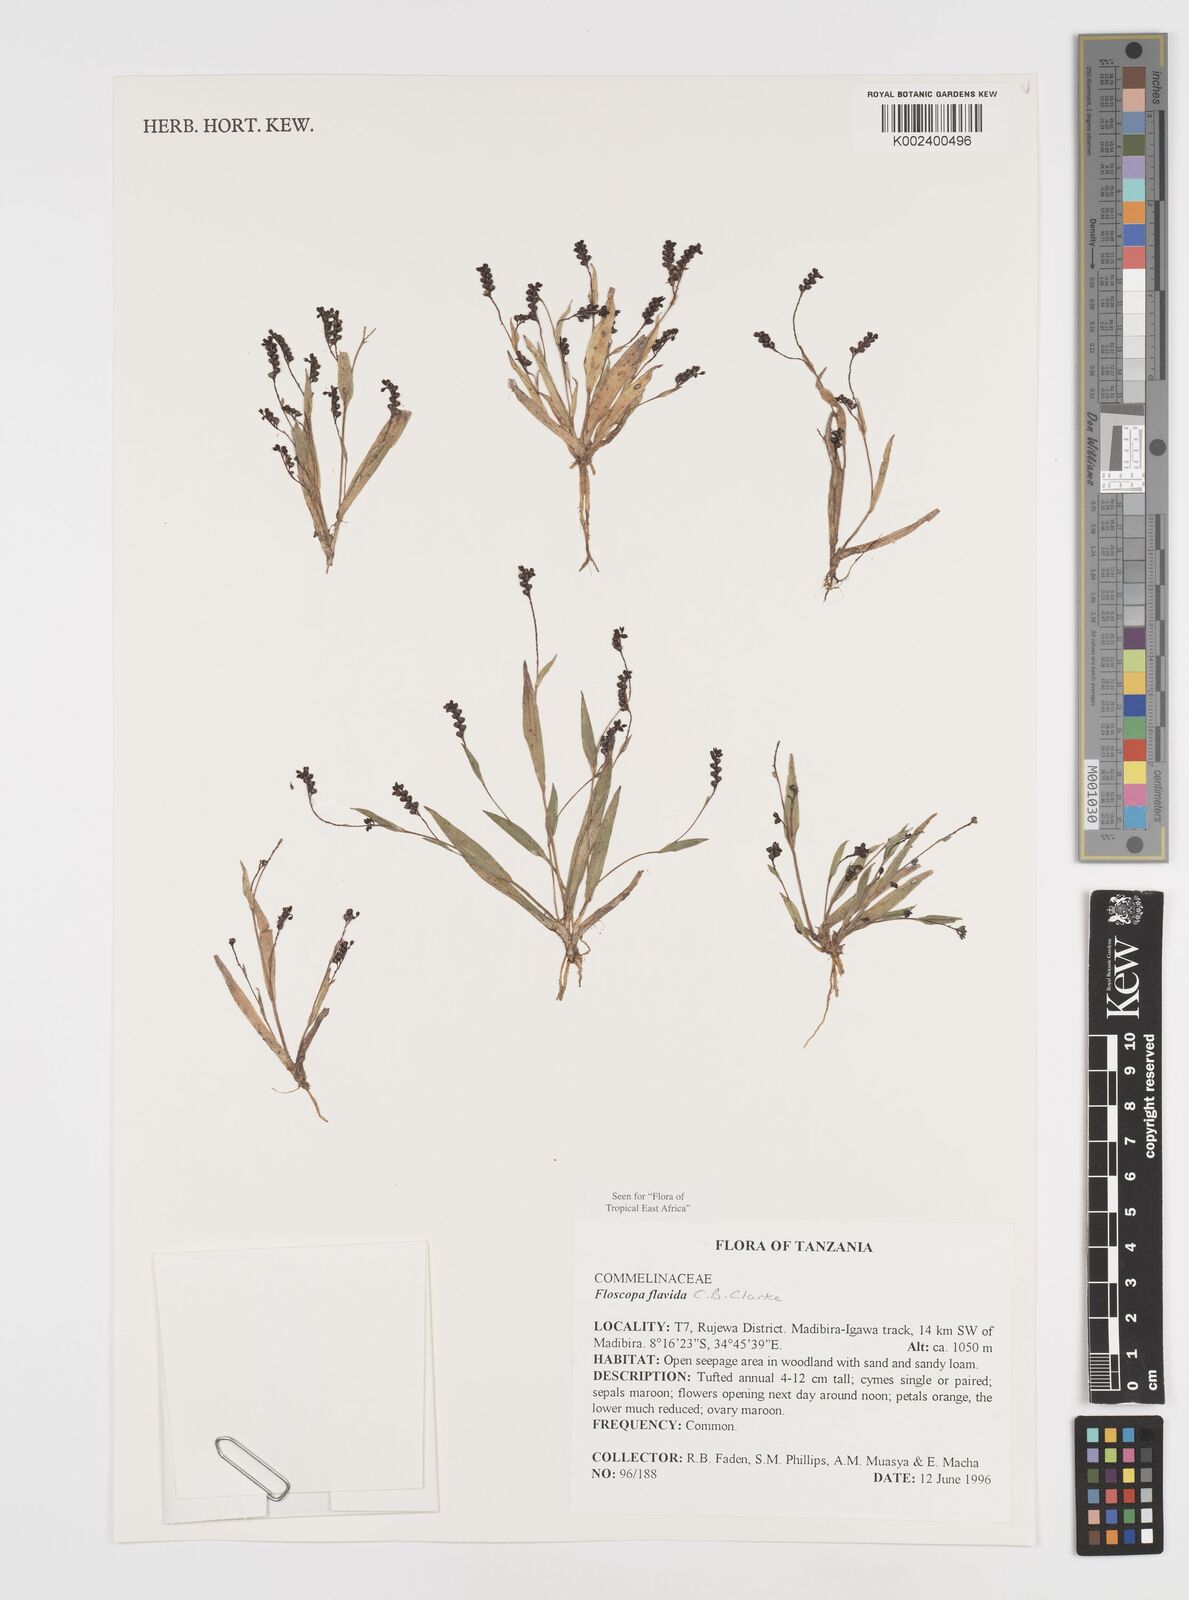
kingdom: Plantae
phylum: Tracheophyta
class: Liliopsida
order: Commelinales
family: Commelinaceae
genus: Floscopa
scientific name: Floscopa flavida
